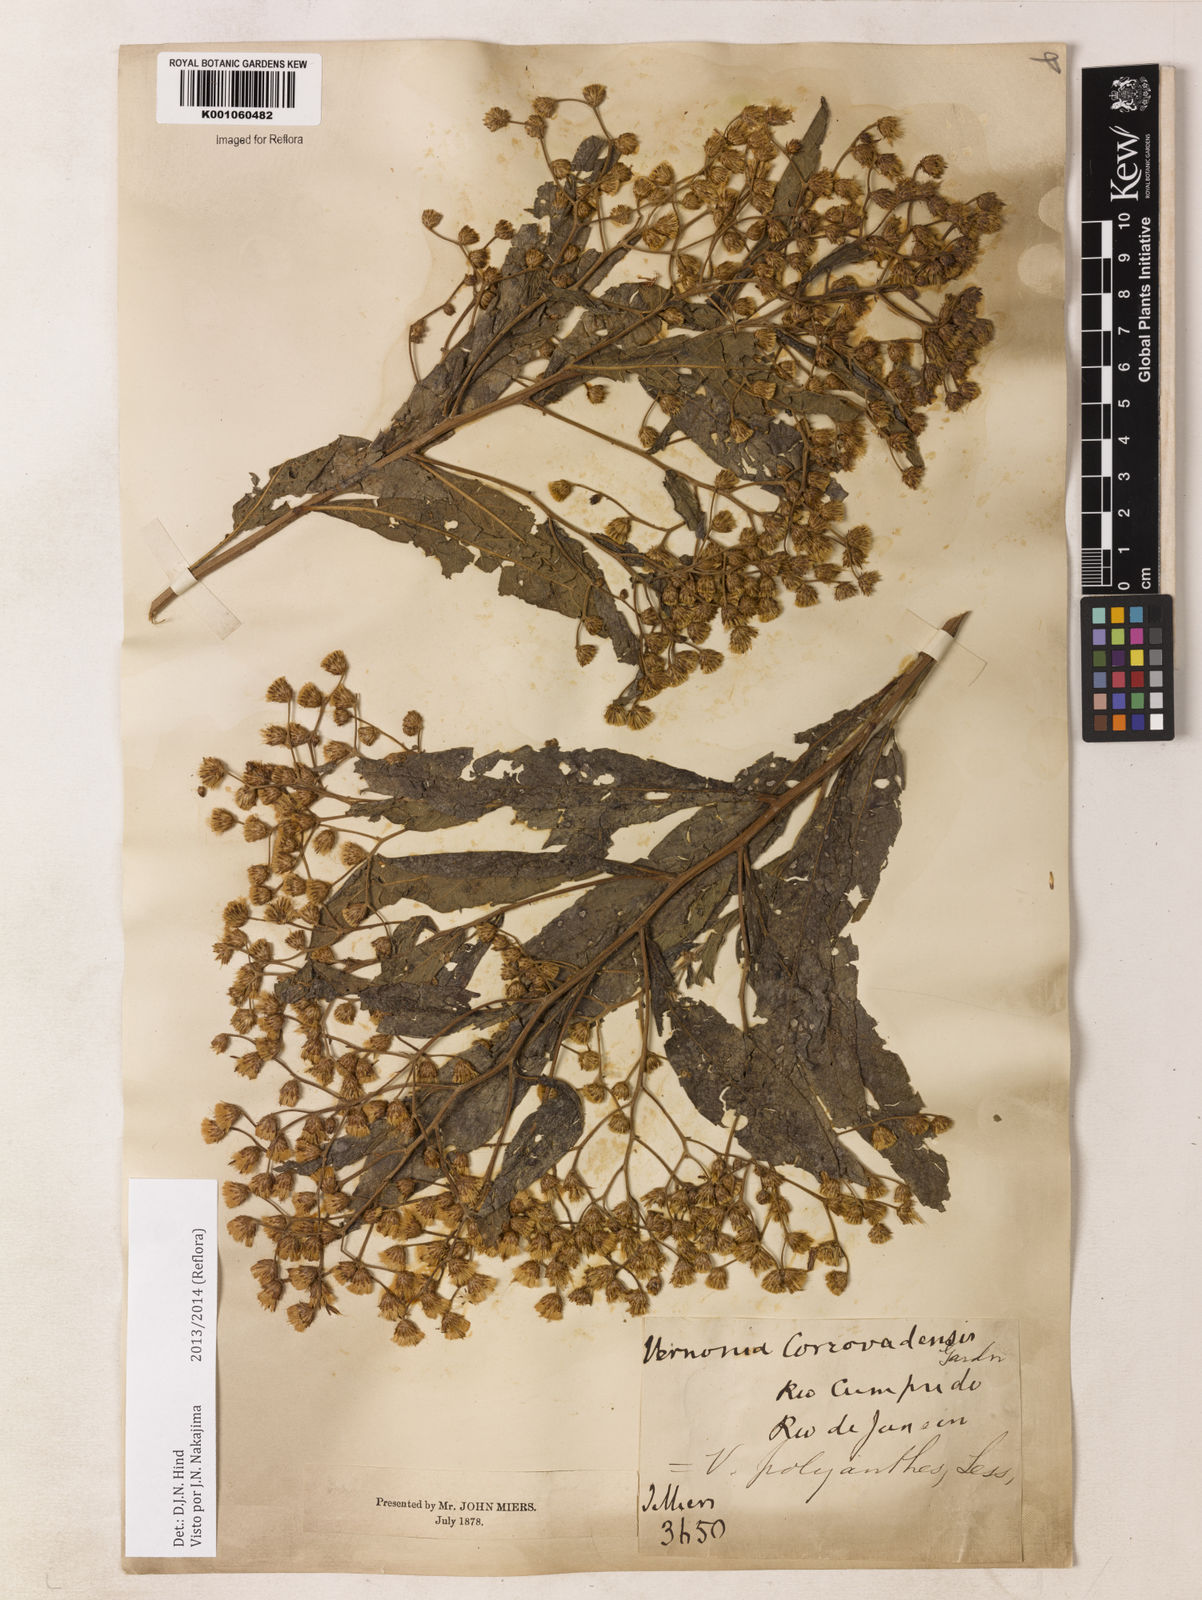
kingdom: Plantae
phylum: Tracheophyta
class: Magnoliopsida
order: Asterales
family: Asteraceae
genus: Vernonanthura
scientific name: Vernonanthura polyanthes
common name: Tree aster
